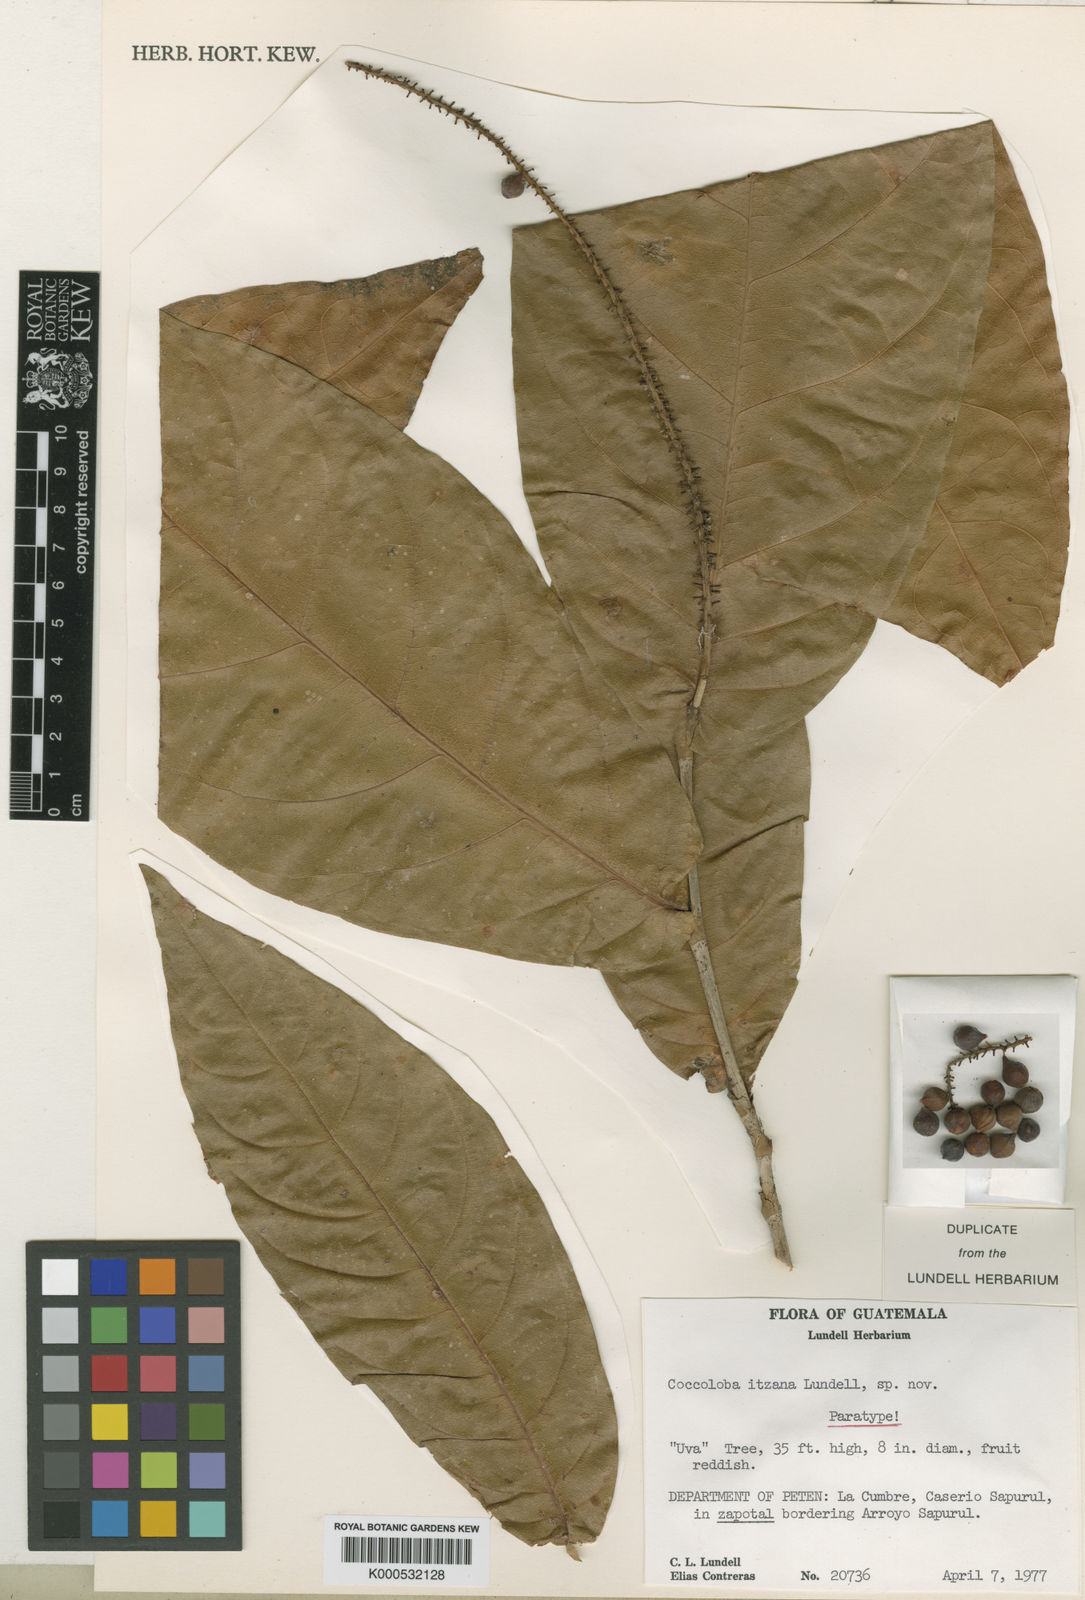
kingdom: Plantae
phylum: Tracheophyta
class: Magnoliopsida
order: Caryophyllales
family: Polygonaceae
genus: Coccoloba
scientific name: Coccoloba lindaviana
